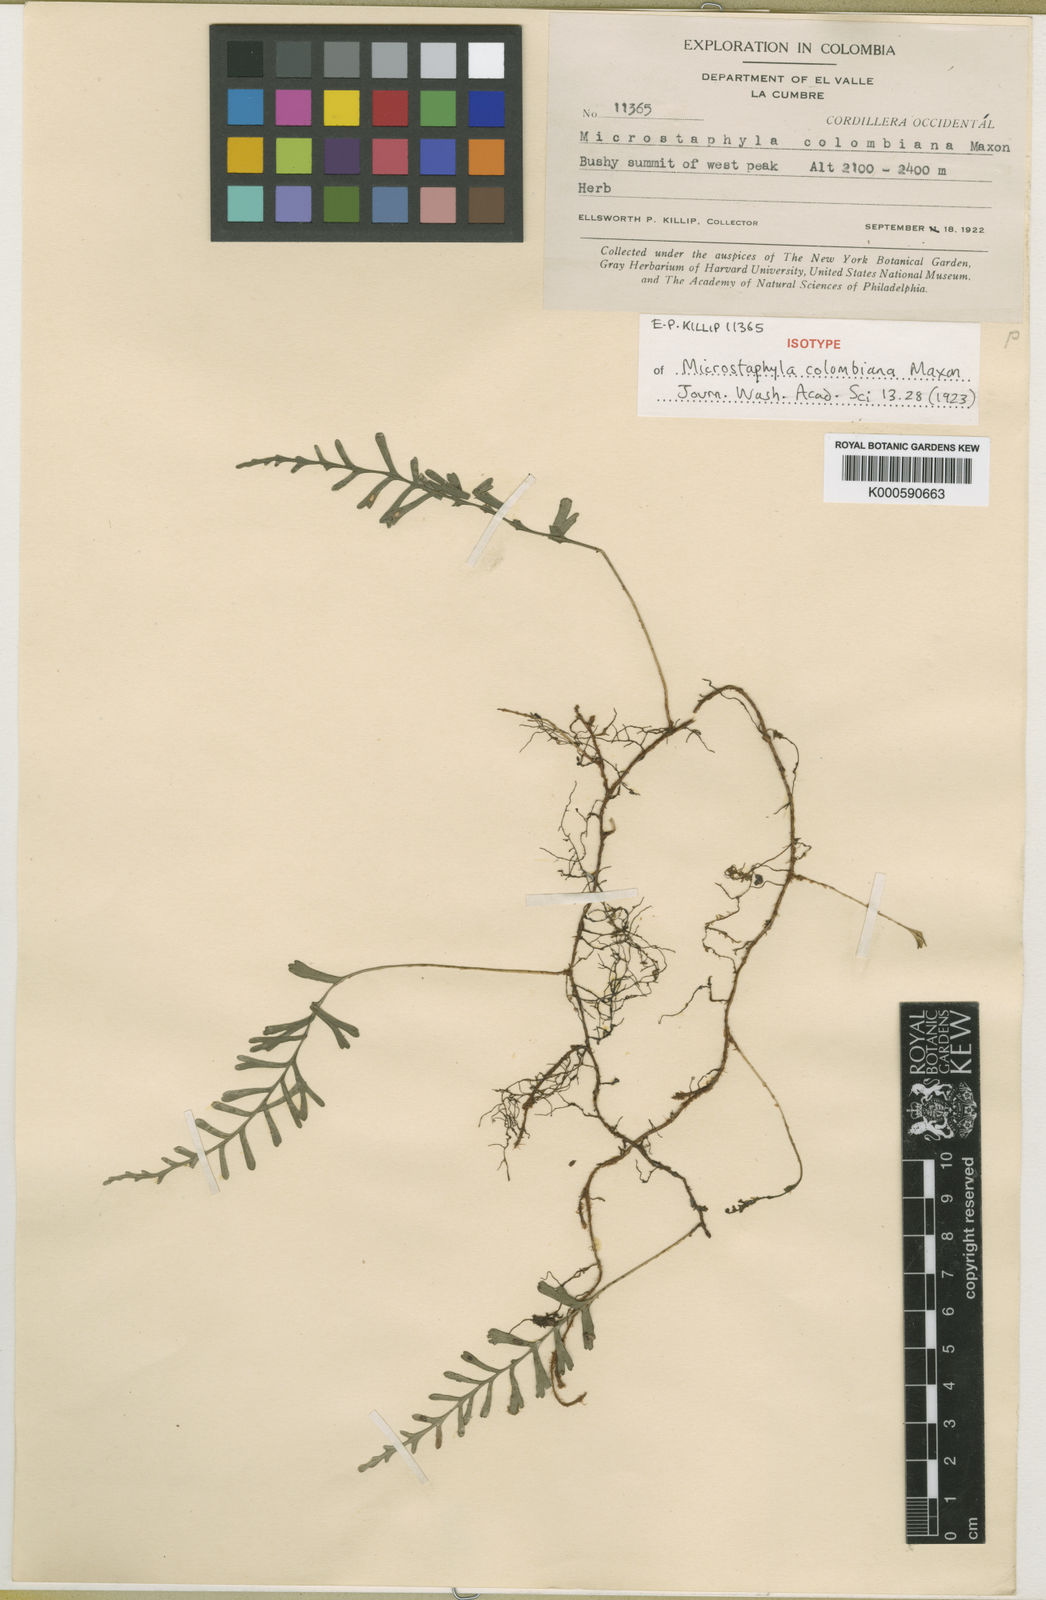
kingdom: Plantae
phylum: Tracheophyta
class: Polypodiopsida
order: Polypodiales
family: Dryopteridaceae
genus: Elaphoglossum
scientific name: Elaphoglossum moorei
